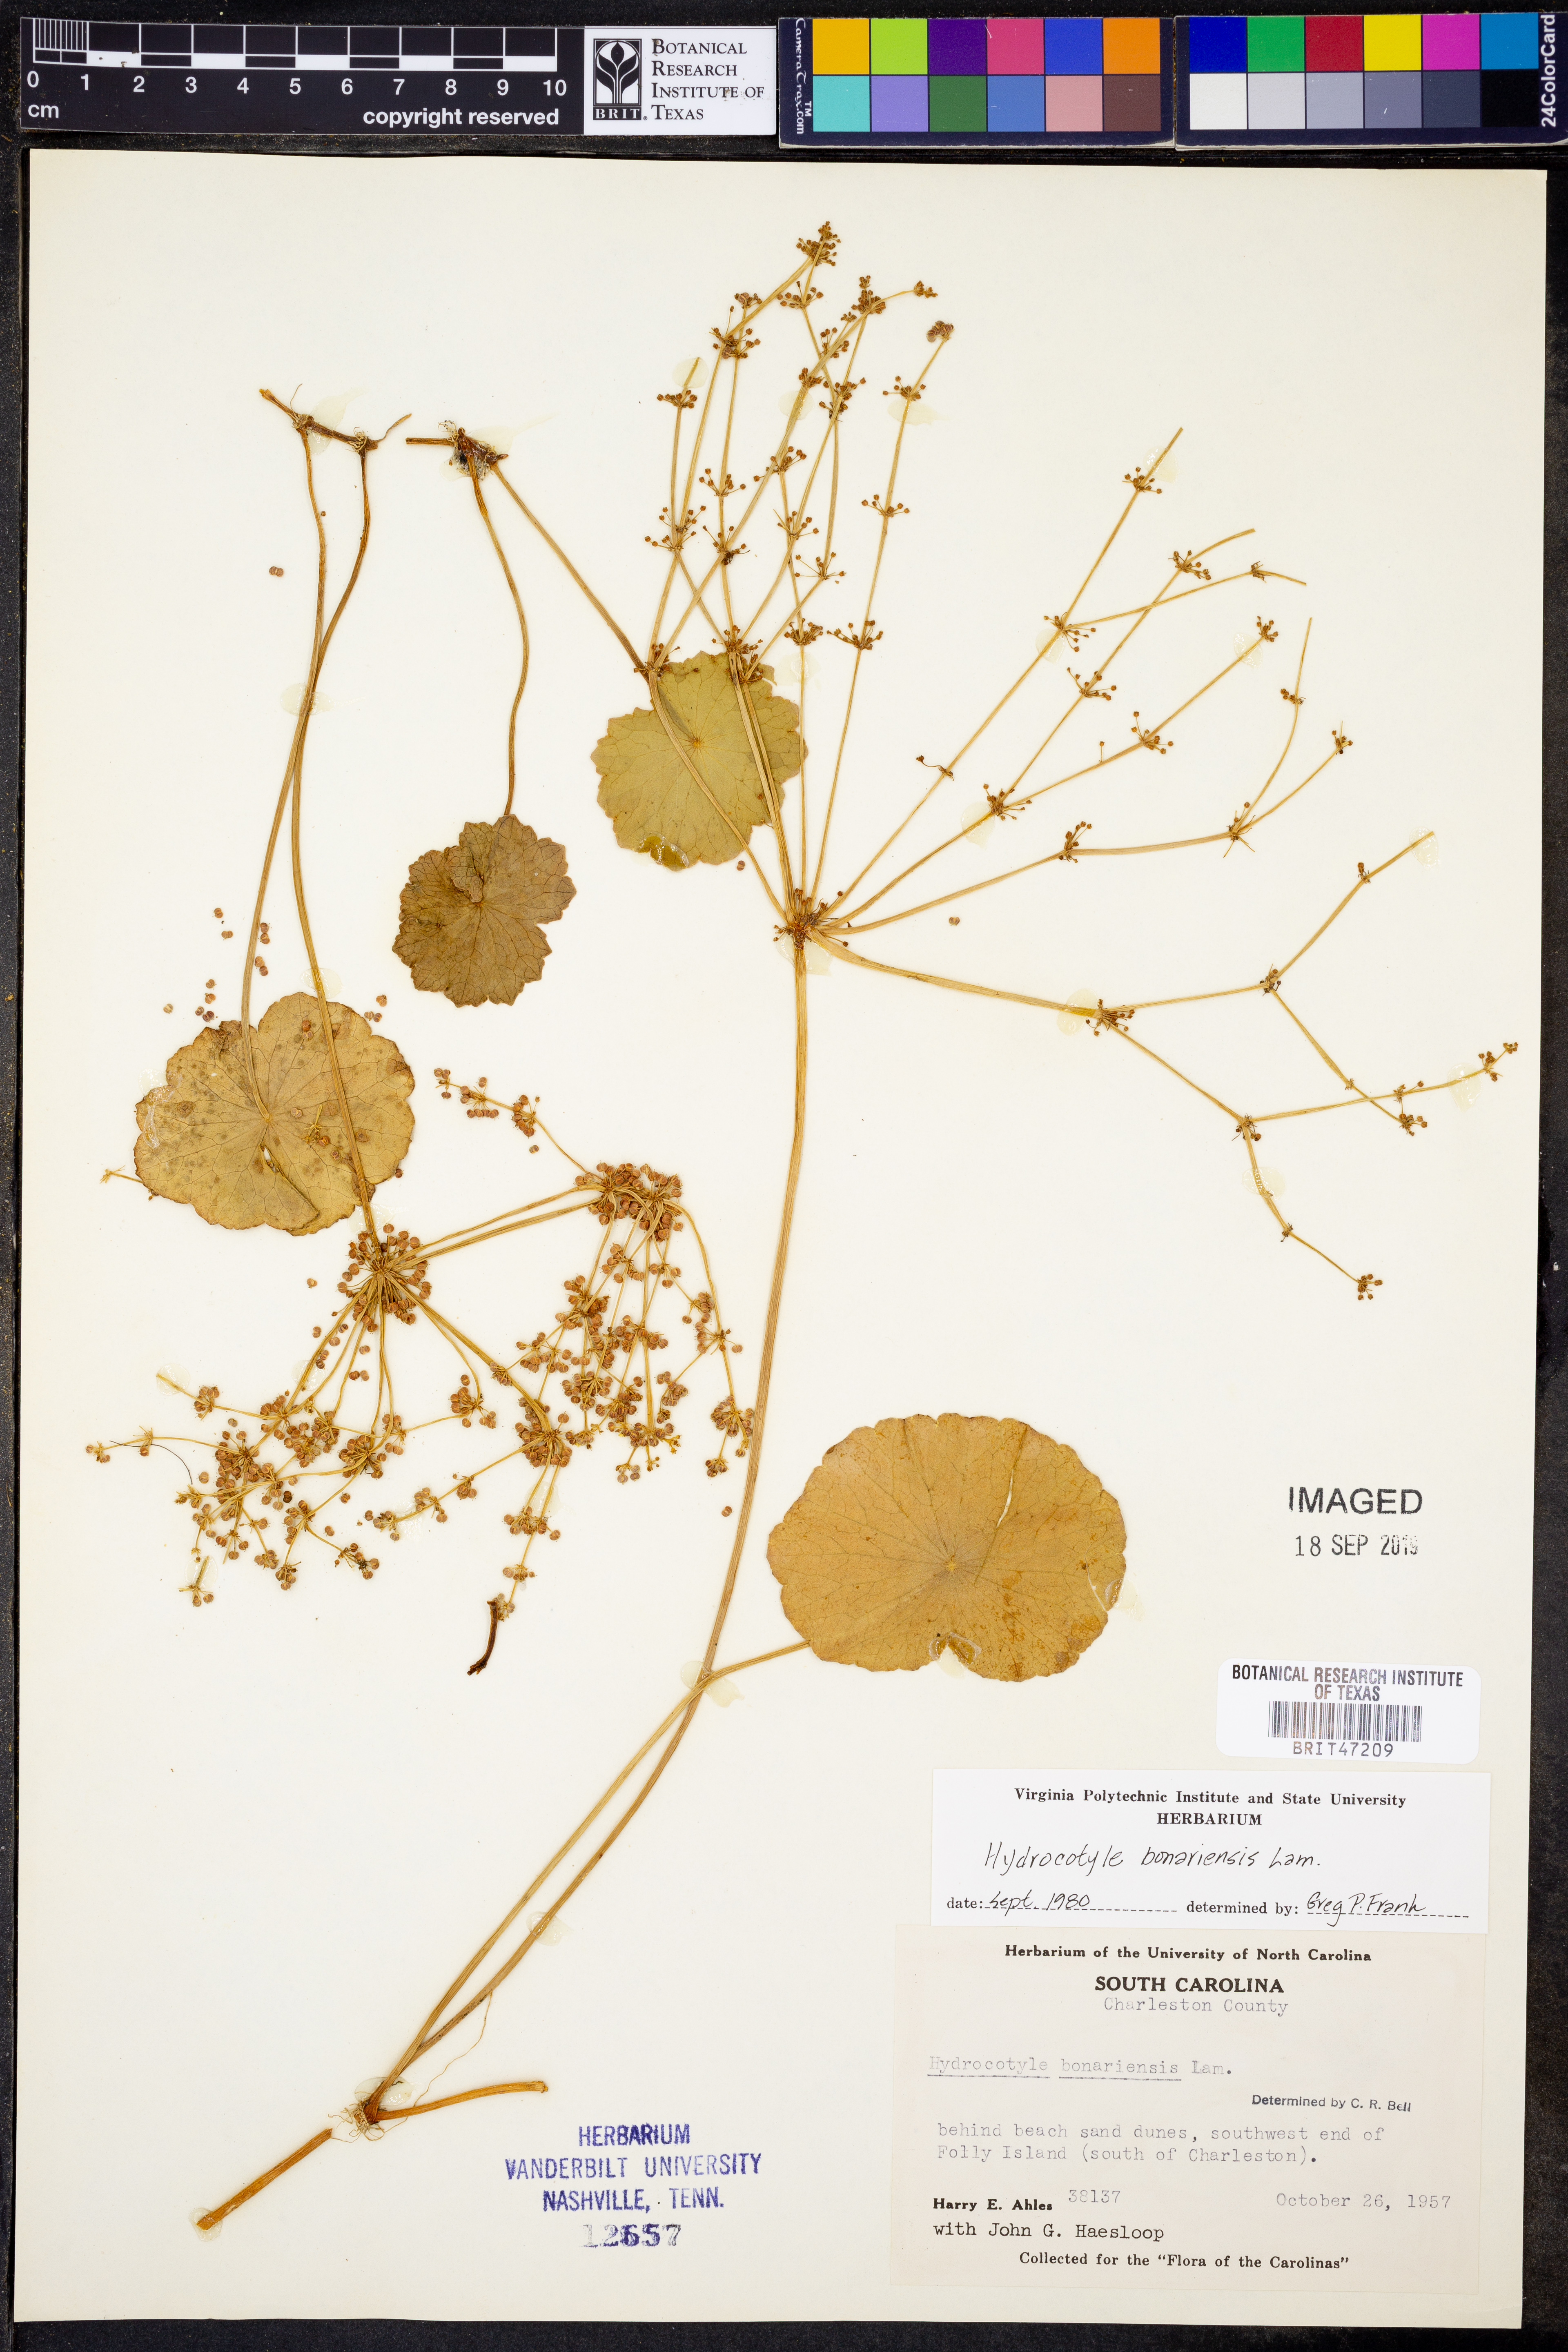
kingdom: Plantae
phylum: Tracheophyta
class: Magnoliopsida
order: Apiales
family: Araliaceae
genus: Hydrocotyle
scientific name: Hydrocotyle bonariensis
